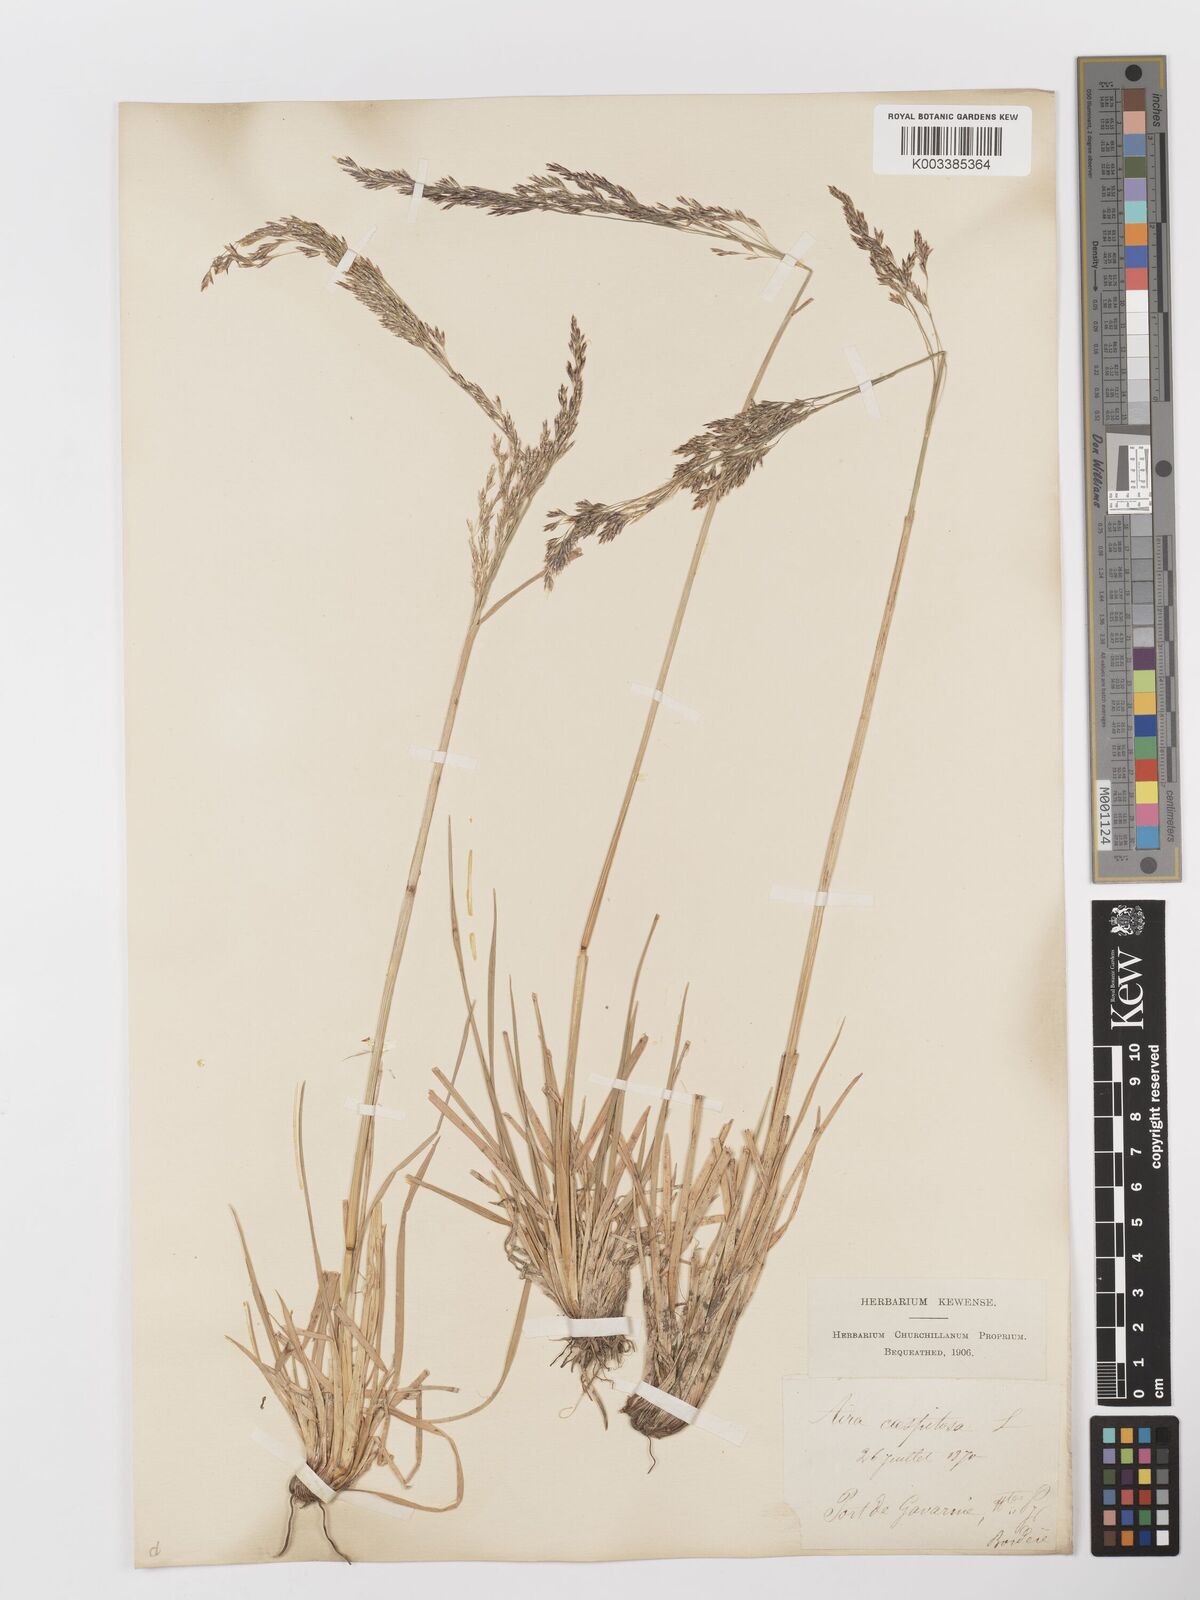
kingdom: Plantae
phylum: Tracheophyta
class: Liliopsida
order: Poales
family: Poaceae
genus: Deschampsia
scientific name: Deschampsia cespitosa
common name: Tufted hair-grass
